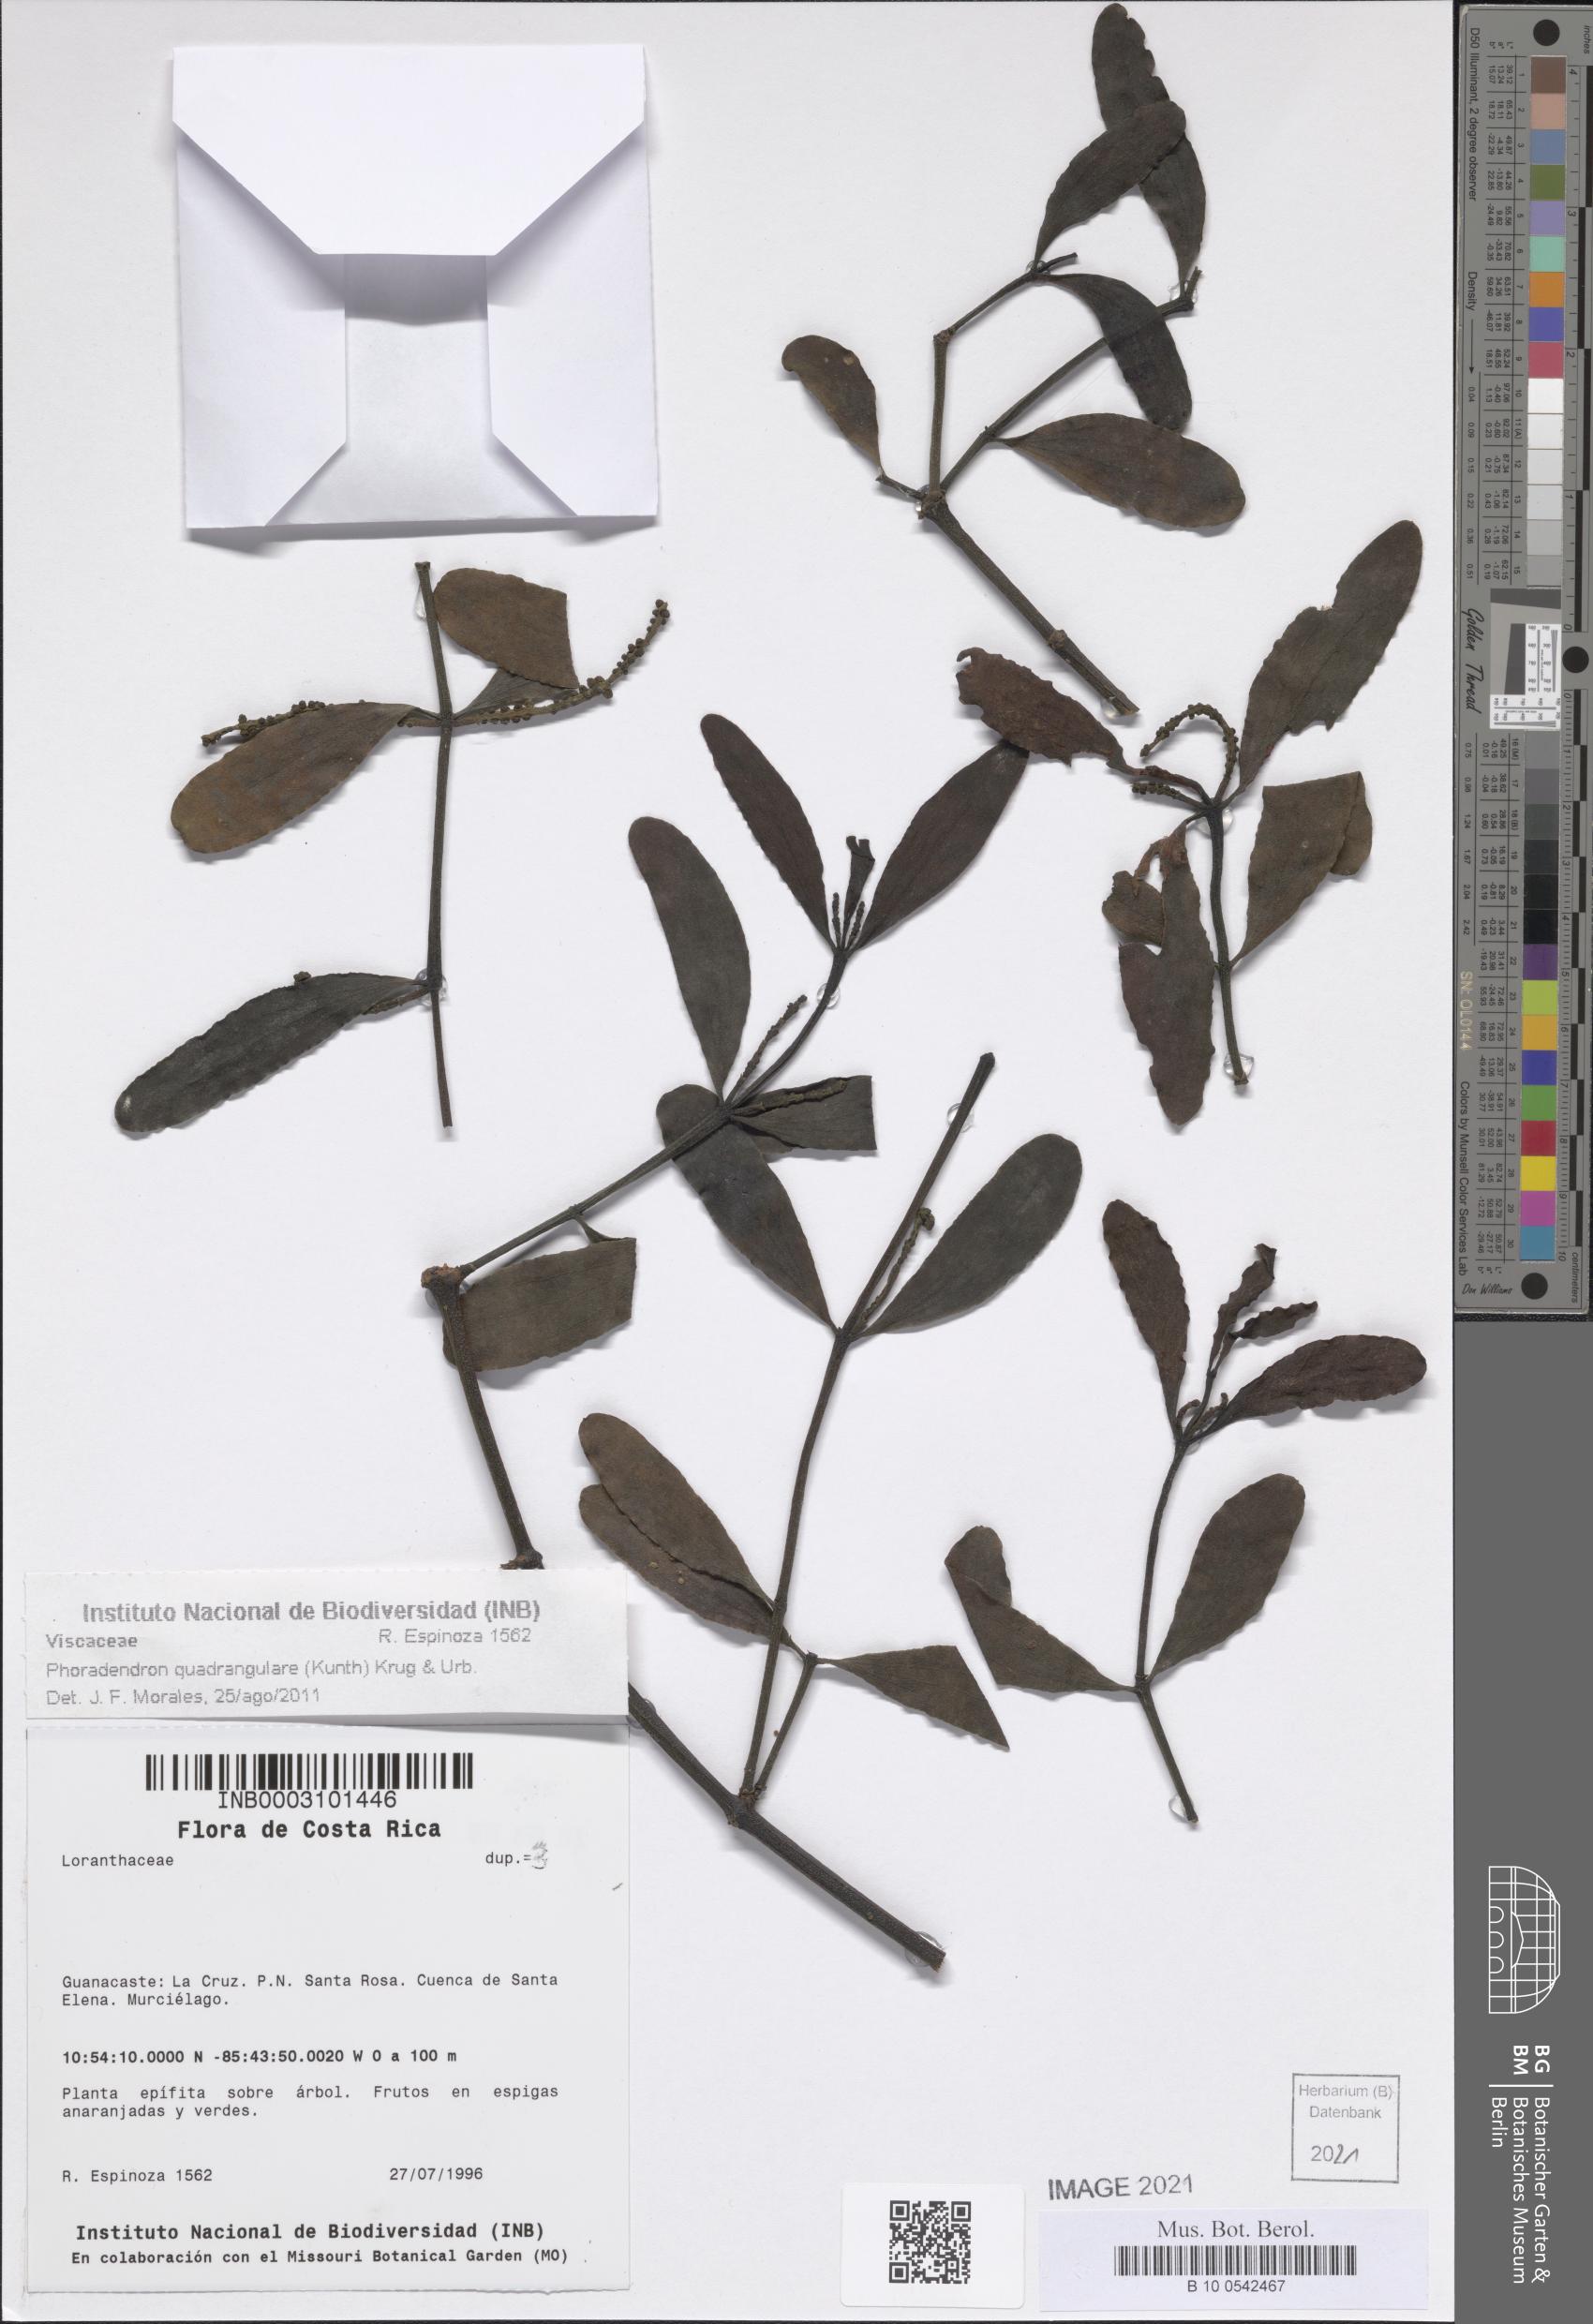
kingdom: Plantae
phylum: Tracheophyta
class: Magnoliopsida
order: Santalales
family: Viscaceae
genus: Phoradendron
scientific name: Phoradendron quadrangulare
